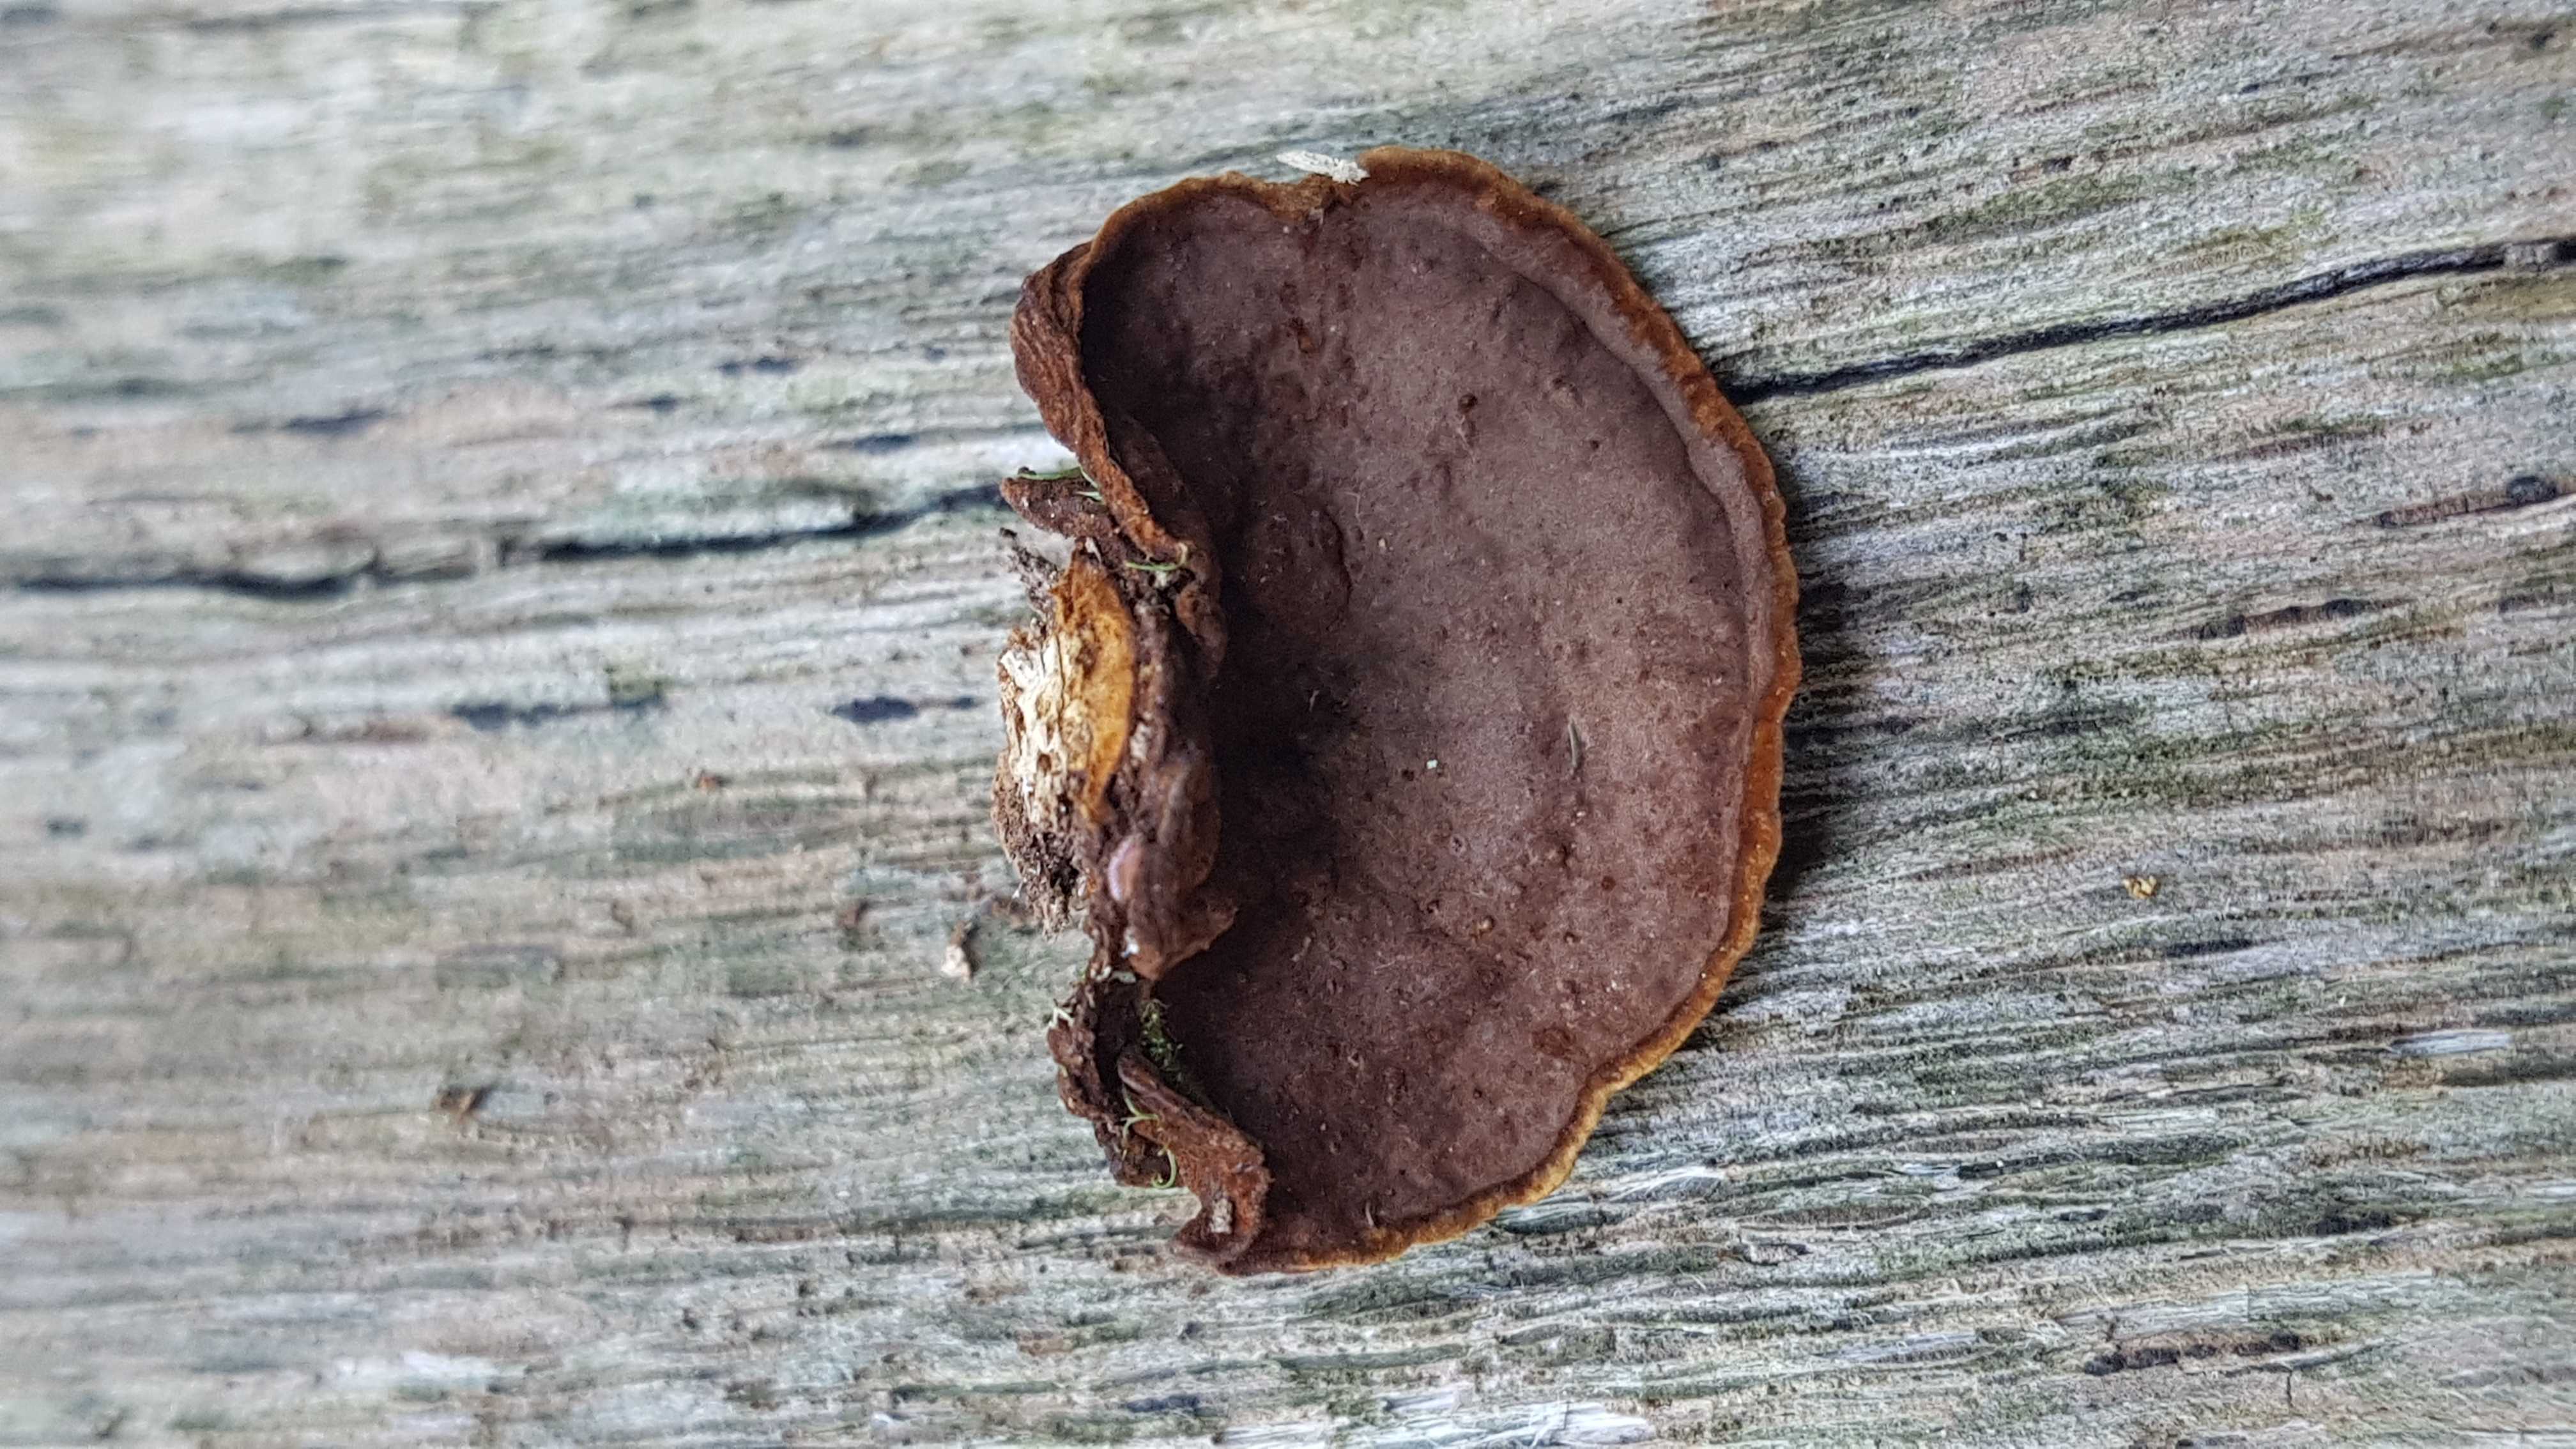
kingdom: Fungi
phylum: Basidiomycota
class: Agaricomycetes
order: Hymenochaetales
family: Hymenochaetaceae
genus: Hymenochaete
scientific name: Hymenochaete rubiginosa
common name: stiv ruslædersvamp
